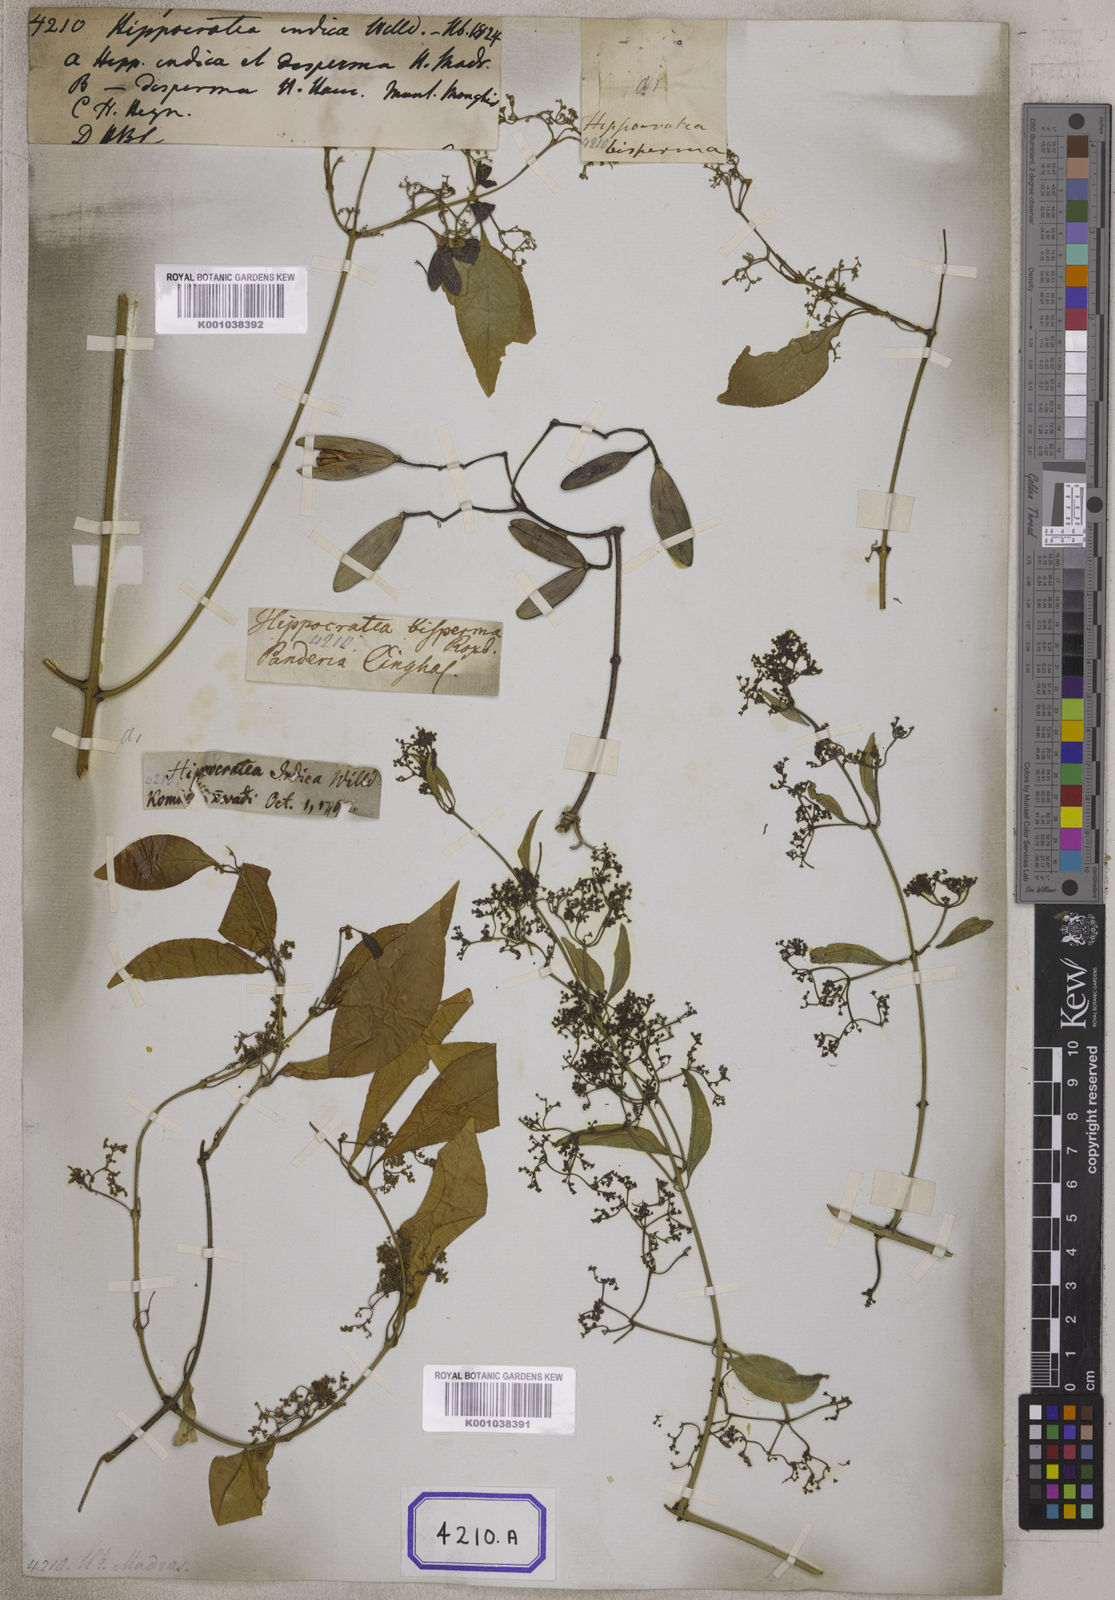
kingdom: Plantae
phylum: Tracheophyta
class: Magnoliopsida
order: Celastrales
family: Celastraceae
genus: Reissantia
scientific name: Reissantia indica
